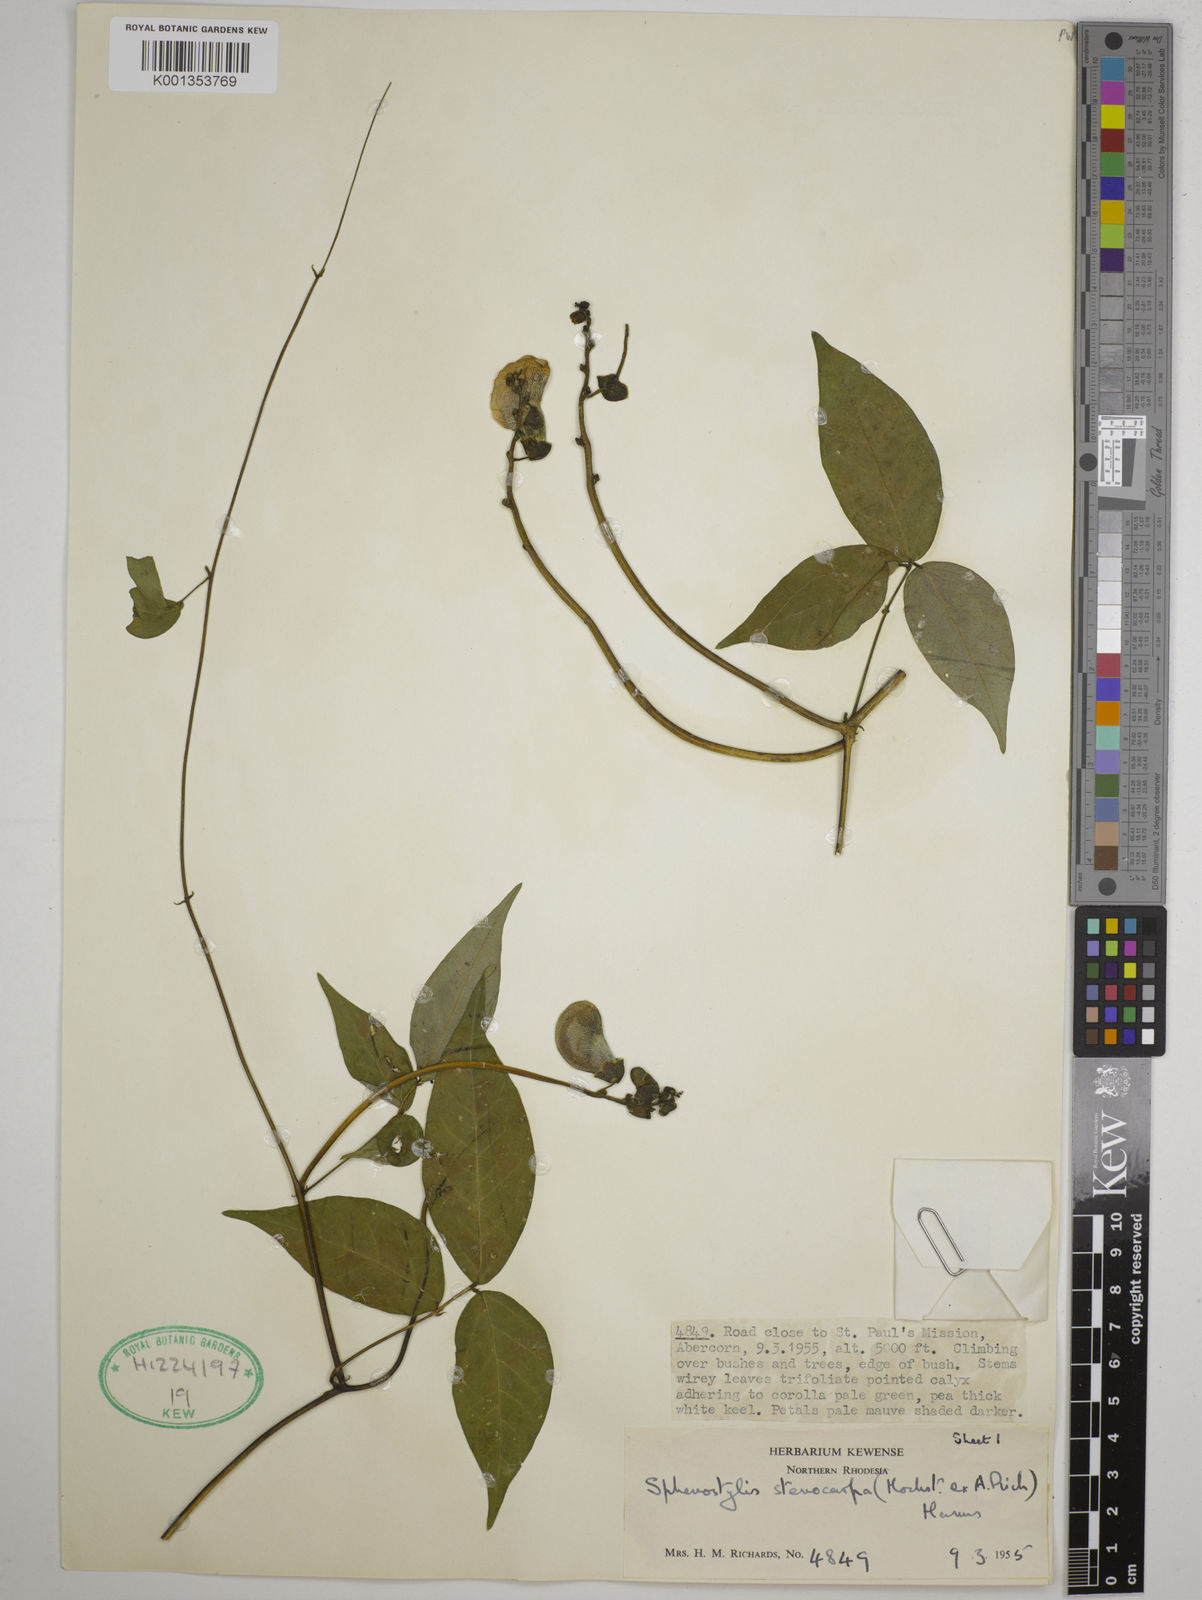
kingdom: Plantae
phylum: Tracheophyta
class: Magnoliopsida
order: Fabales
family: Fabaceae
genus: Sphenostylis
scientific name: Sphenostylis stenocarpa
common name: Yam-pea
